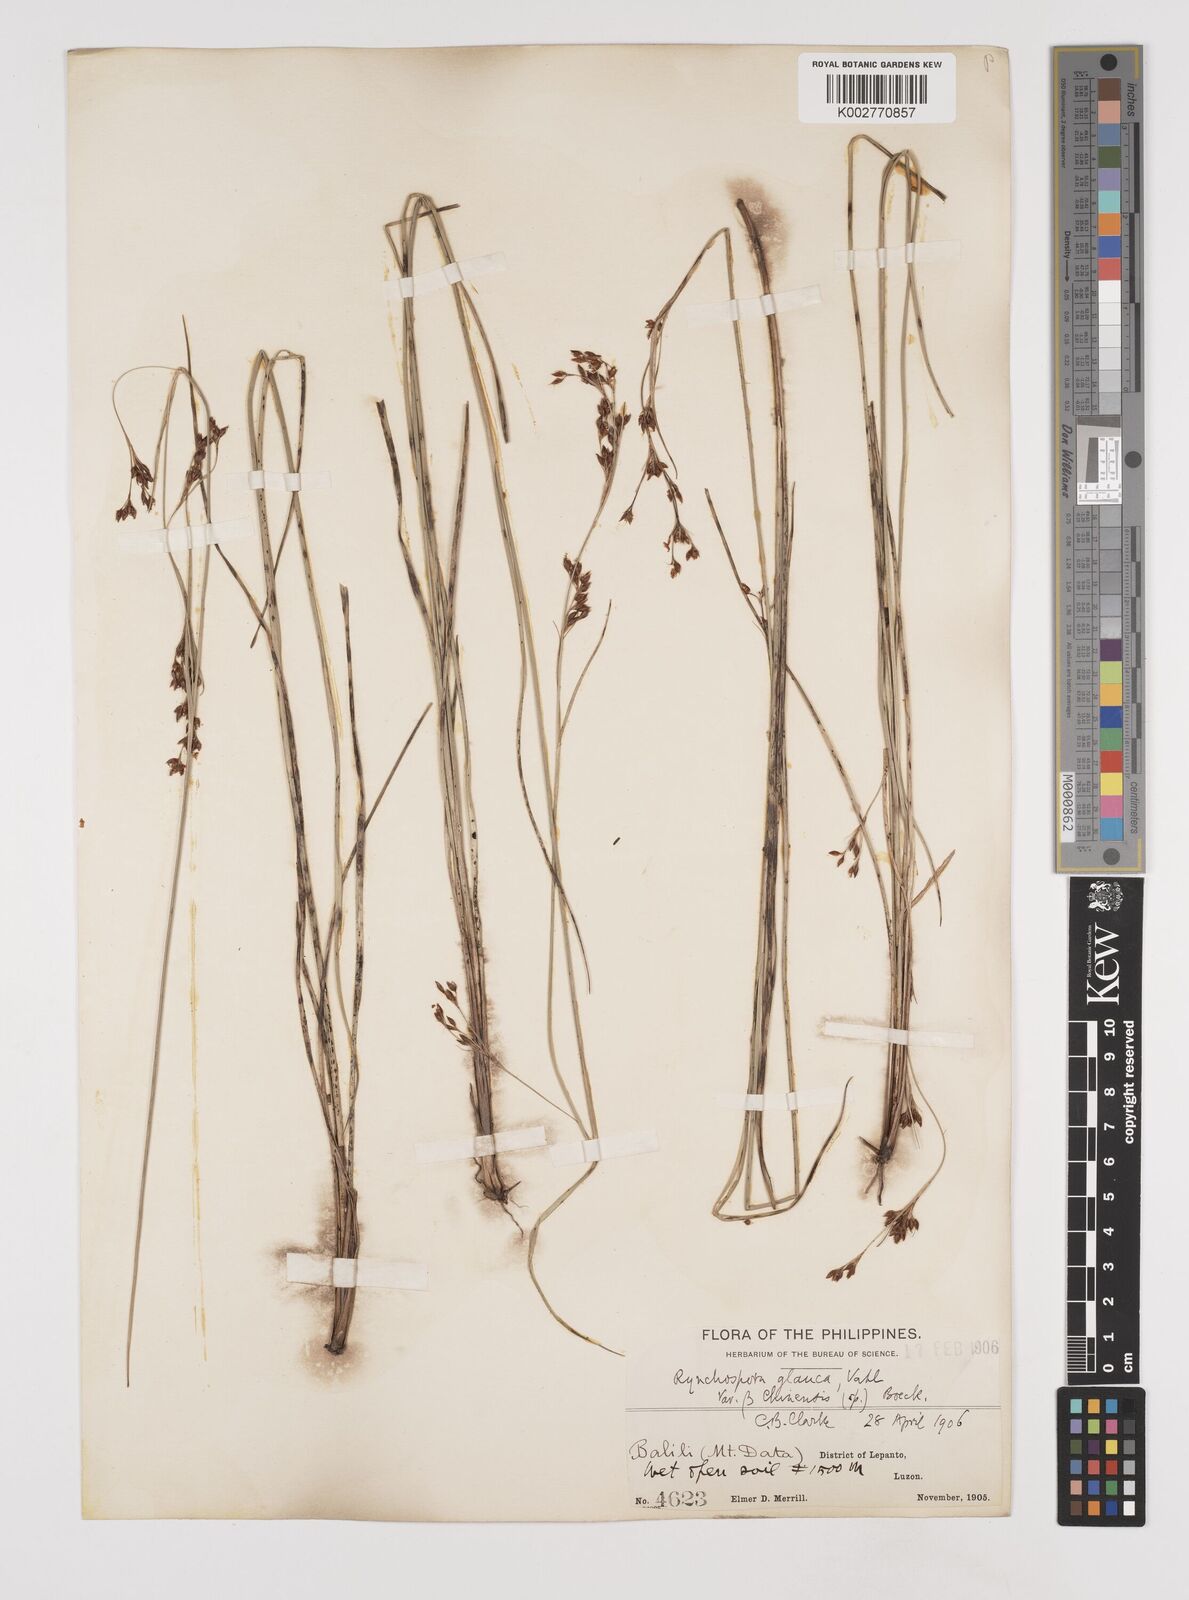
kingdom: Plantae
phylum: Tracheophyta
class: Liliopsida
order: Poales
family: Cyperaceae
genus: Rhynchospora
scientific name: Rhynchospora rugosa
